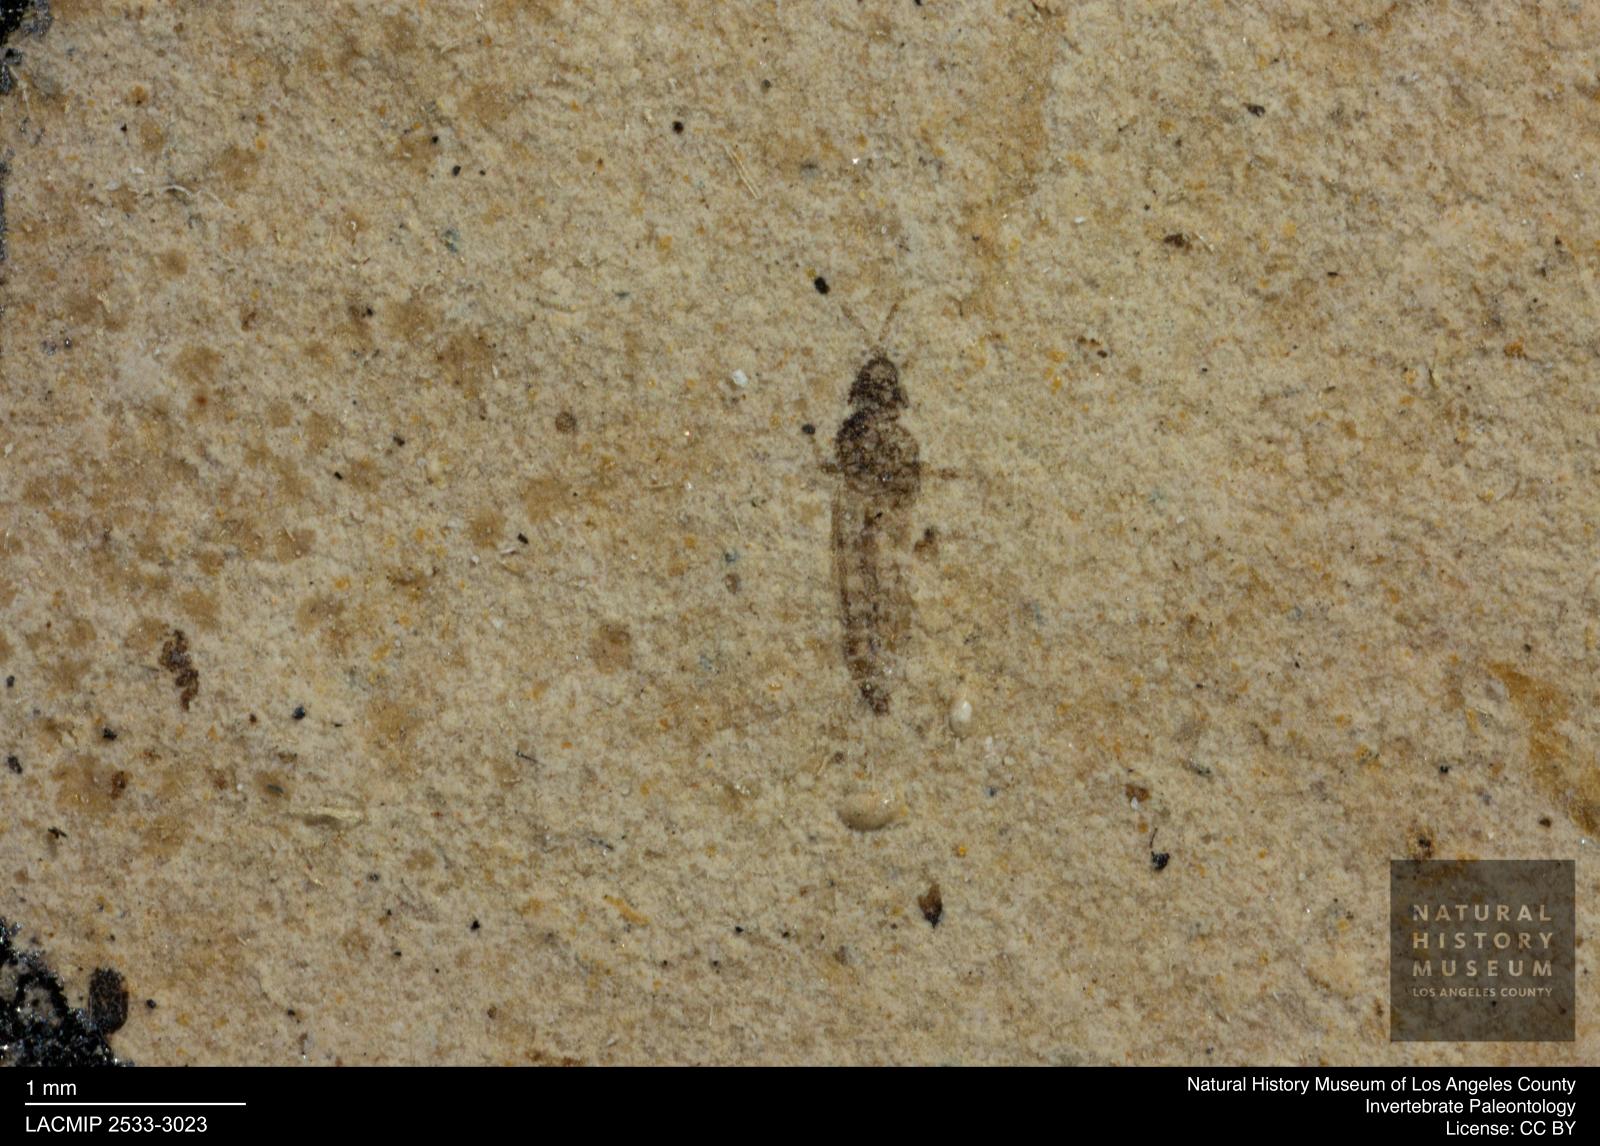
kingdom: Animalia
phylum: Arthropoda
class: Insecta
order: Thysanoptera
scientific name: Thysanoptera
